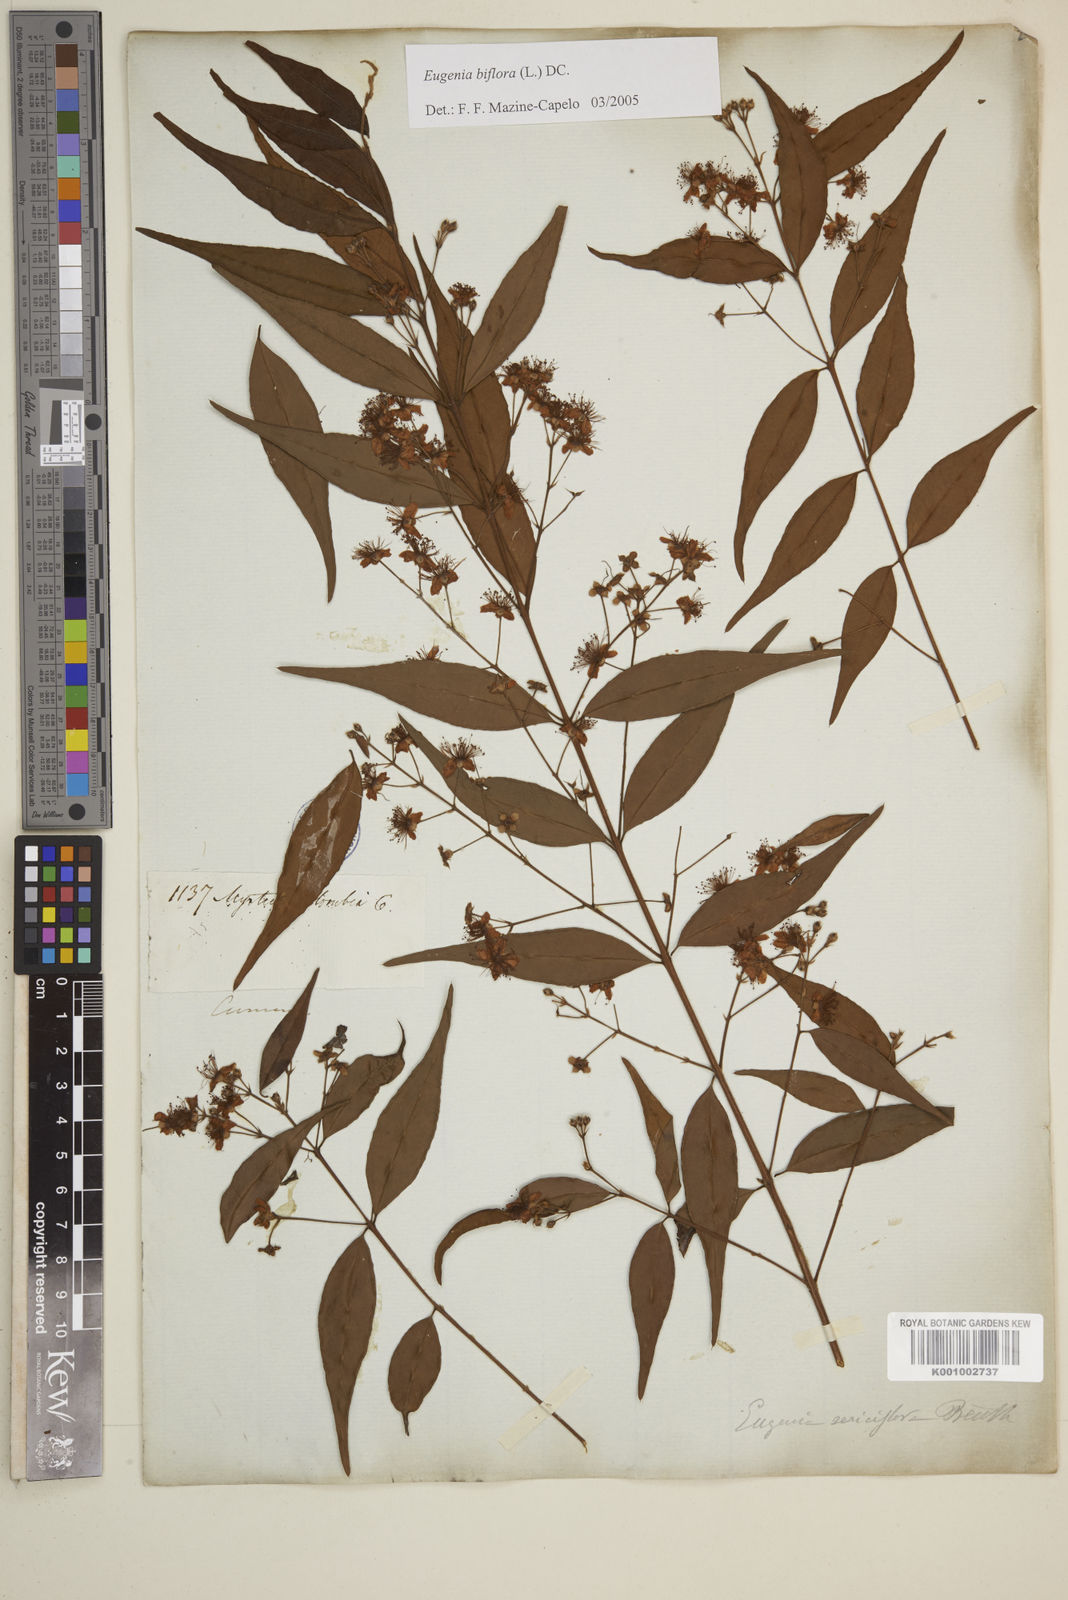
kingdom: Plantae
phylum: Tracheophyta
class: Magnoliopsida
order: Myrtales
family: Myrtaceae
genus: Eugenia
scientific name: Eugenia biflora
